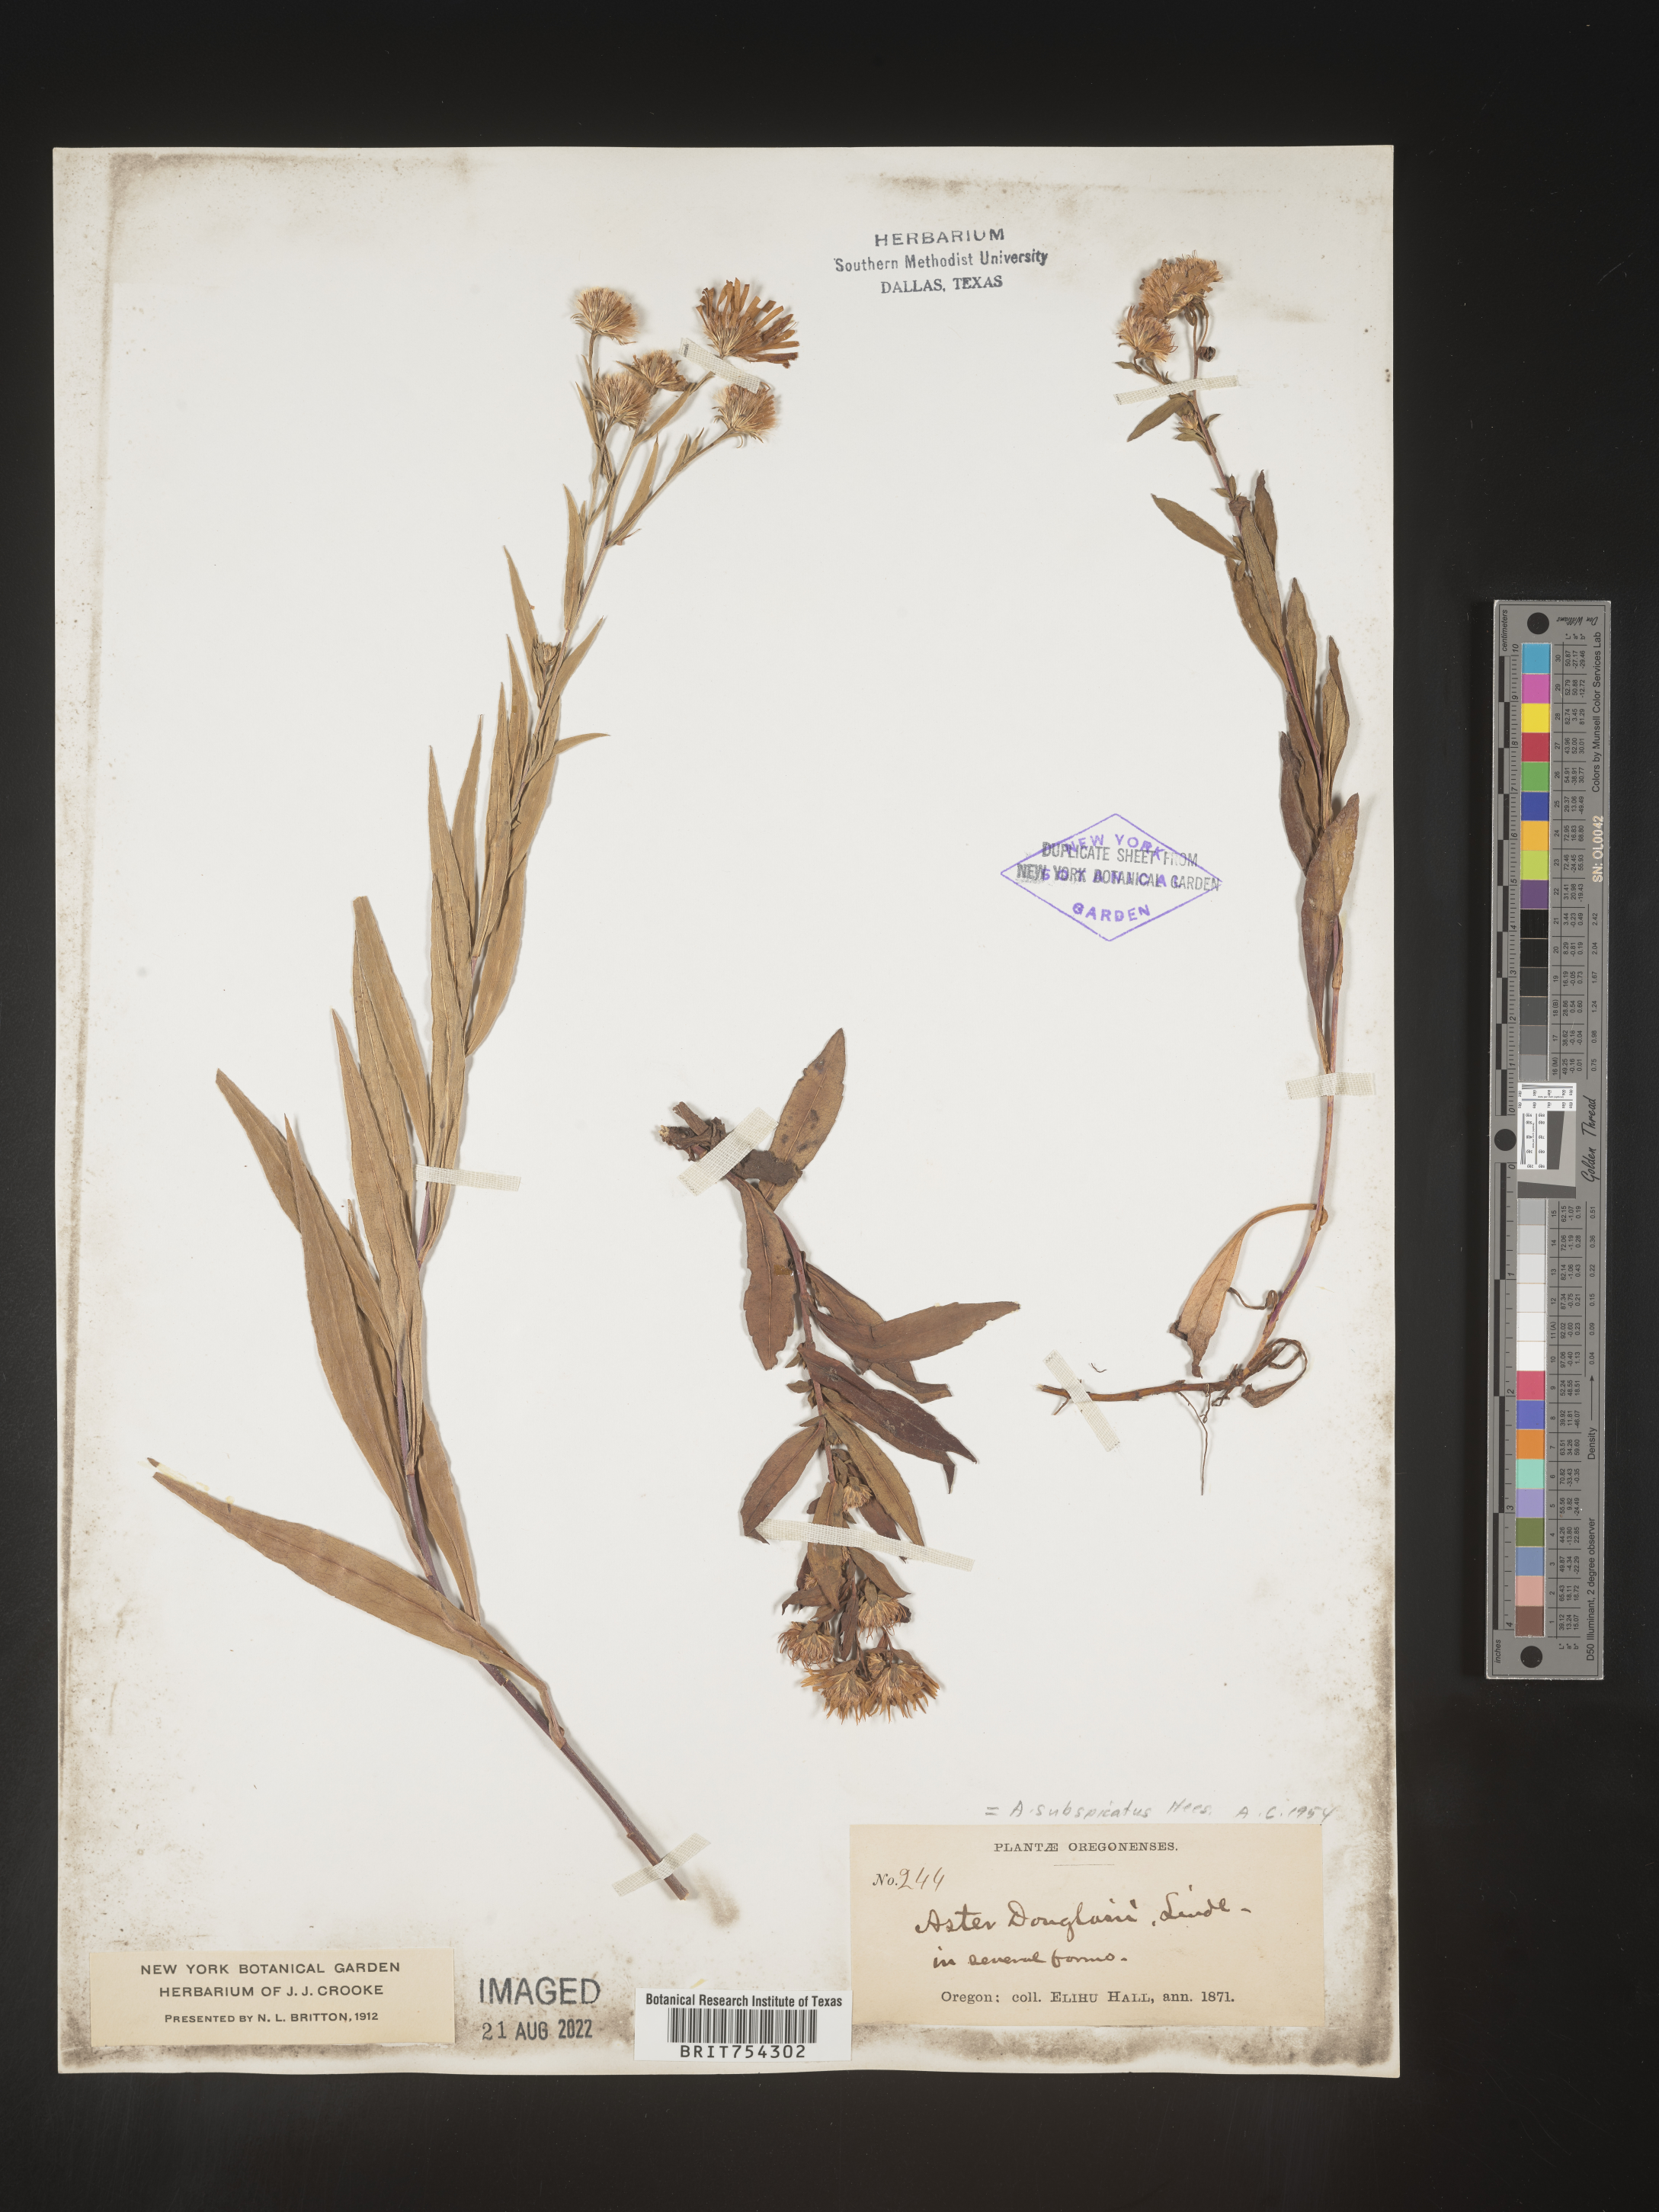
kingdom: Plantae
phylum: Tracheophyta
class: Magnoliopsida
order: Asterales
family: Asteraceae
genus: Symphyotrichum
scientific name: Symphyotrichum subspicatum
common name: Douglas' aster
